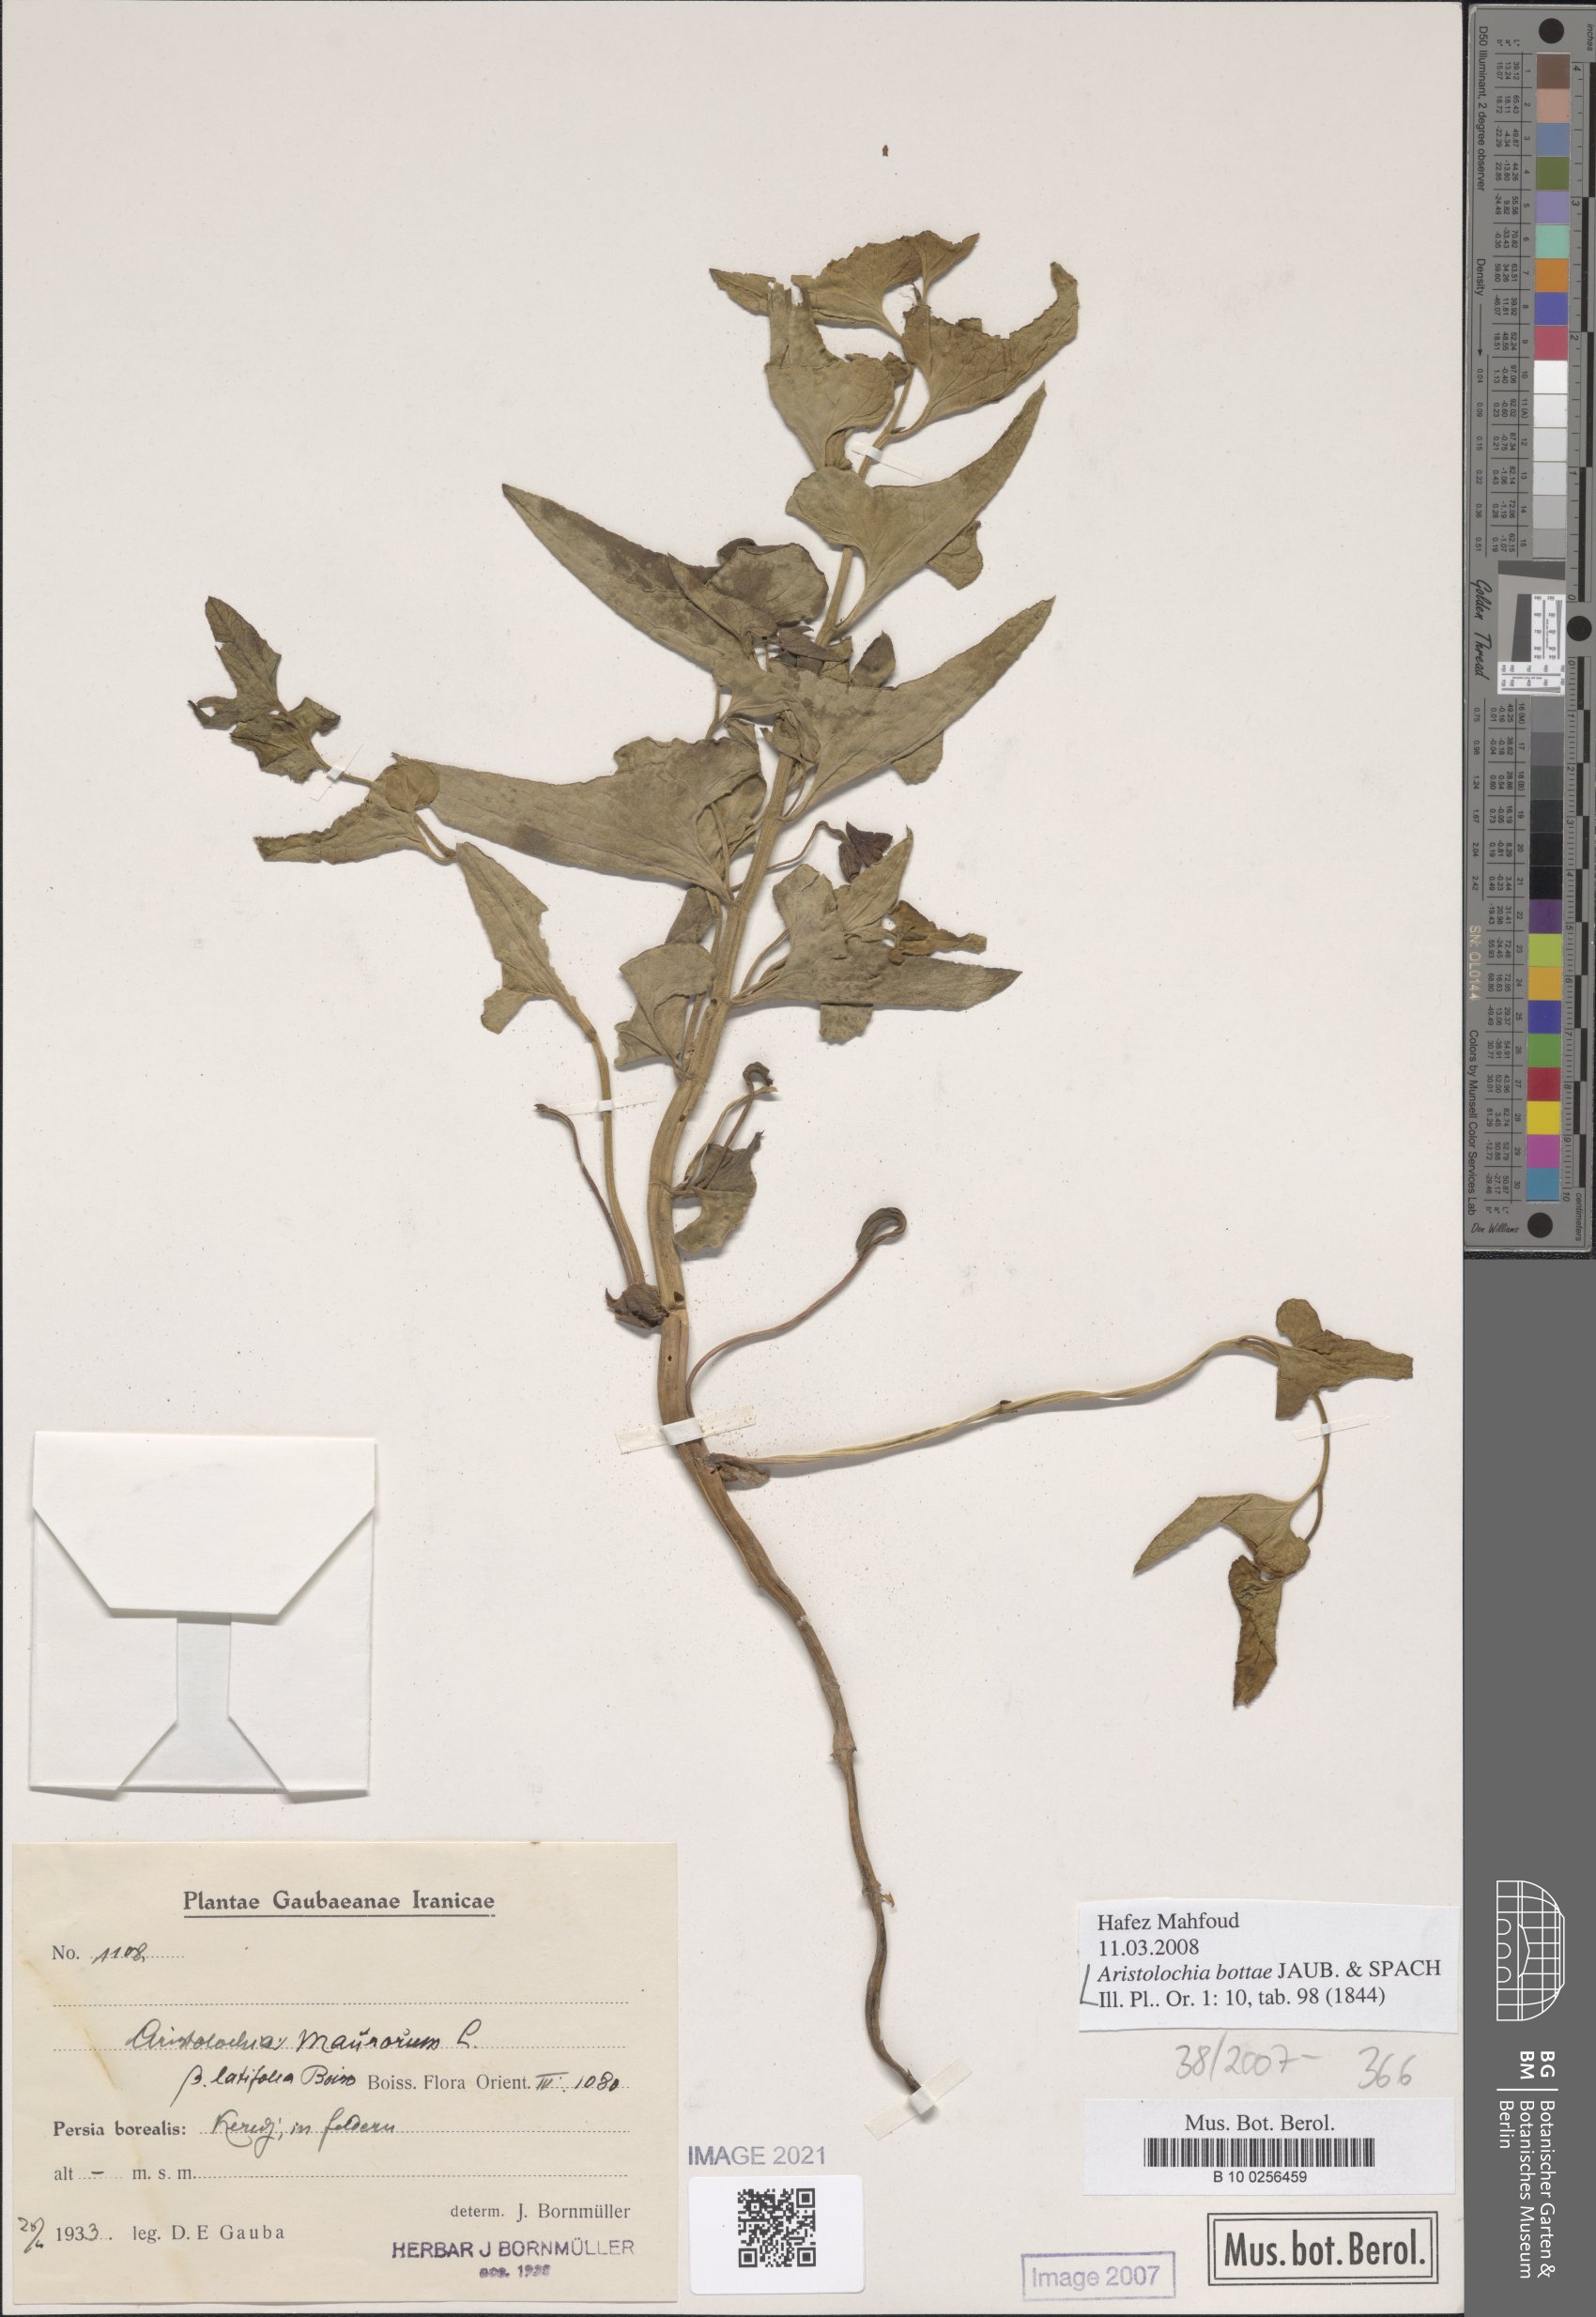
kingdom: Plantae
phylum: Tracheophyta
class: Magnoliopsida
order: Piperales
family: Aristolochiaceae
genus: Aristolochia
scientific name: Aristolochia bottae
